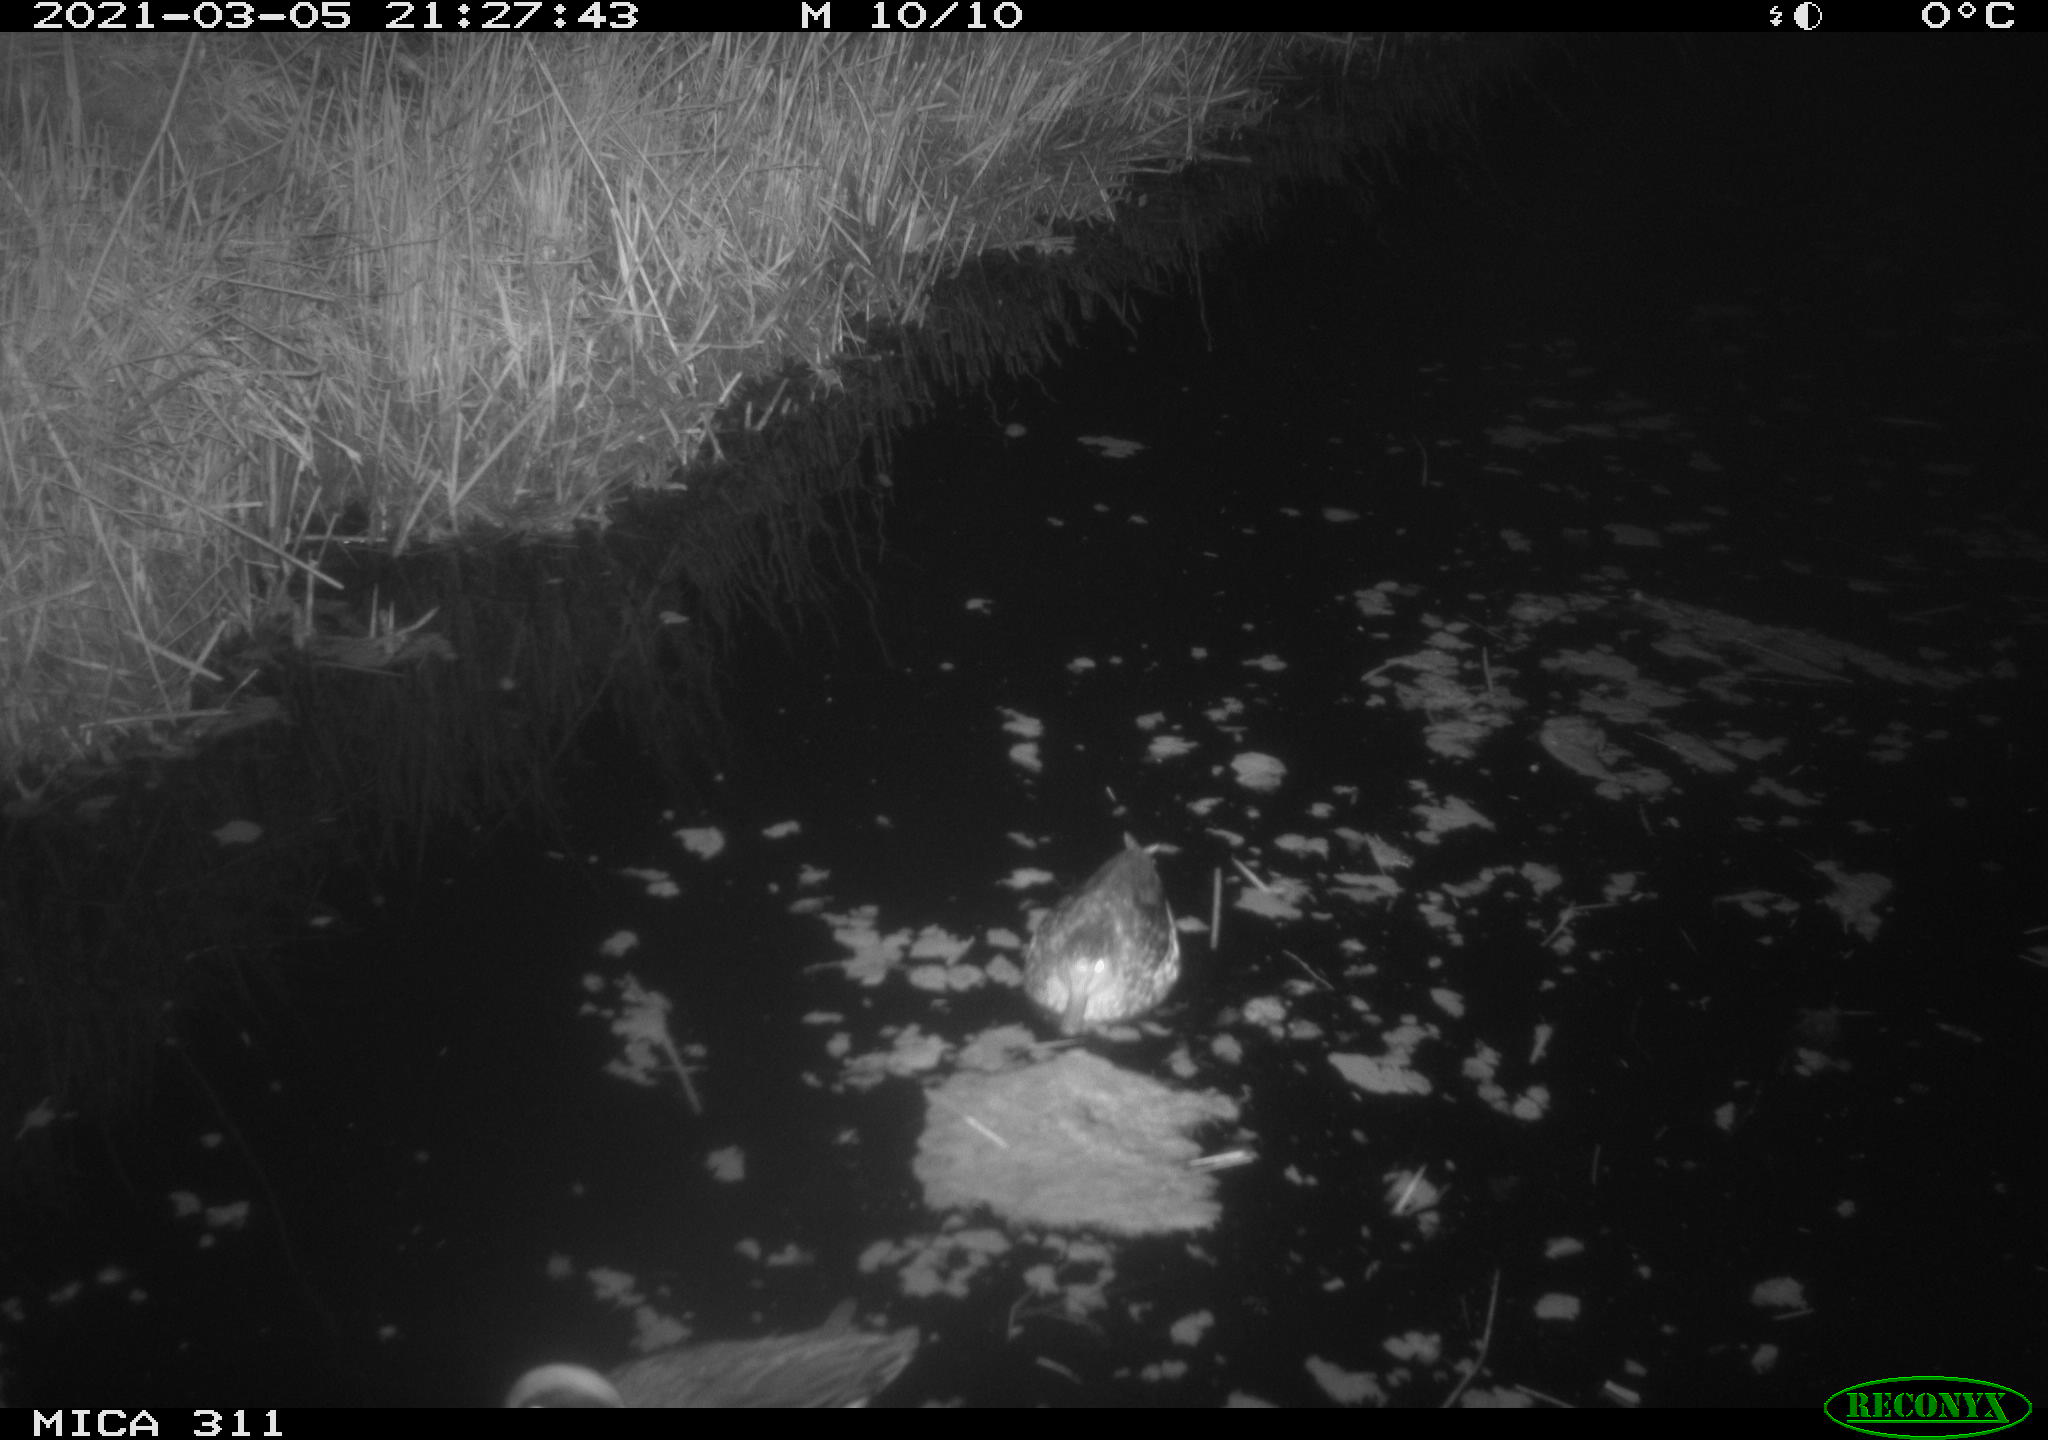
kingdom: Animalia
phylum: Chordata
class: Aves
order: Anseriformes
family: Anatidae
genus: Anas
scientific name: Anas crecca
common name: Eurasian teal
